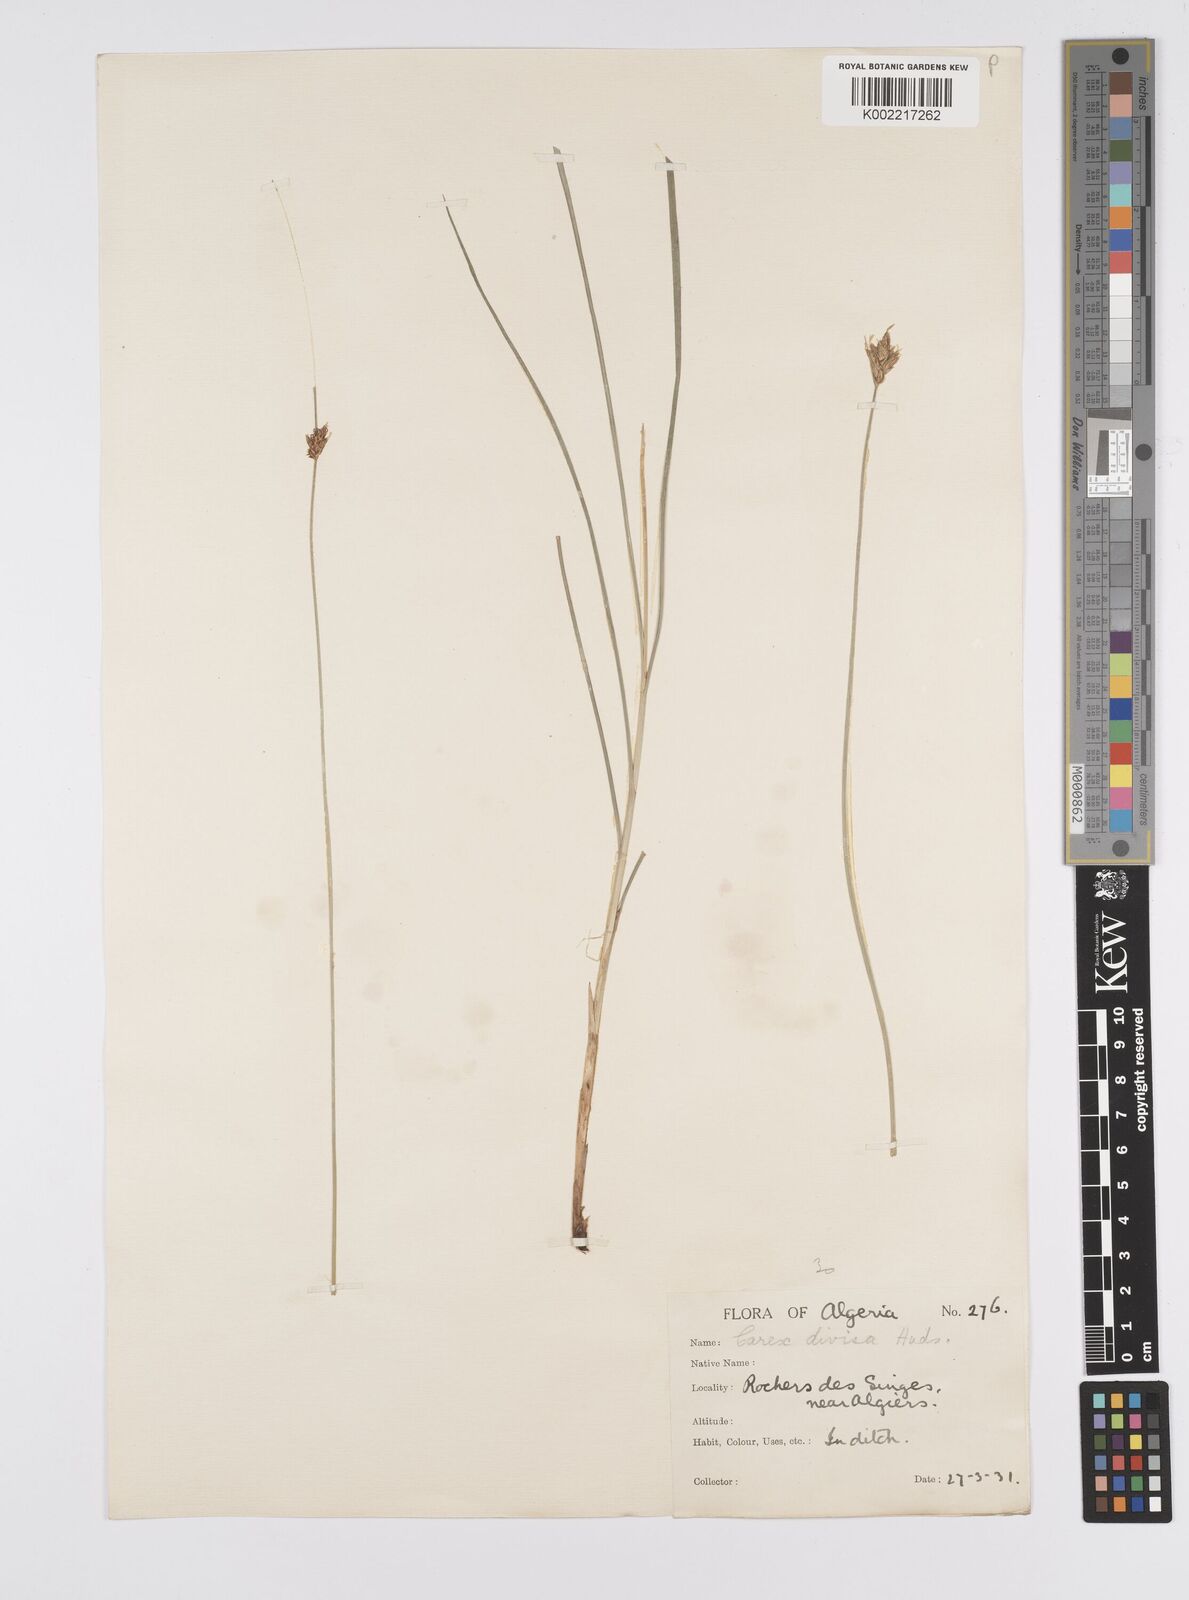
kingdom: Plantae
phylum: Tracheophyta
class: Liliopsida
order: Poales
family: Cyperaceae
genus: Carex
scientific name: Carex divisa
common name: Divided sedge
